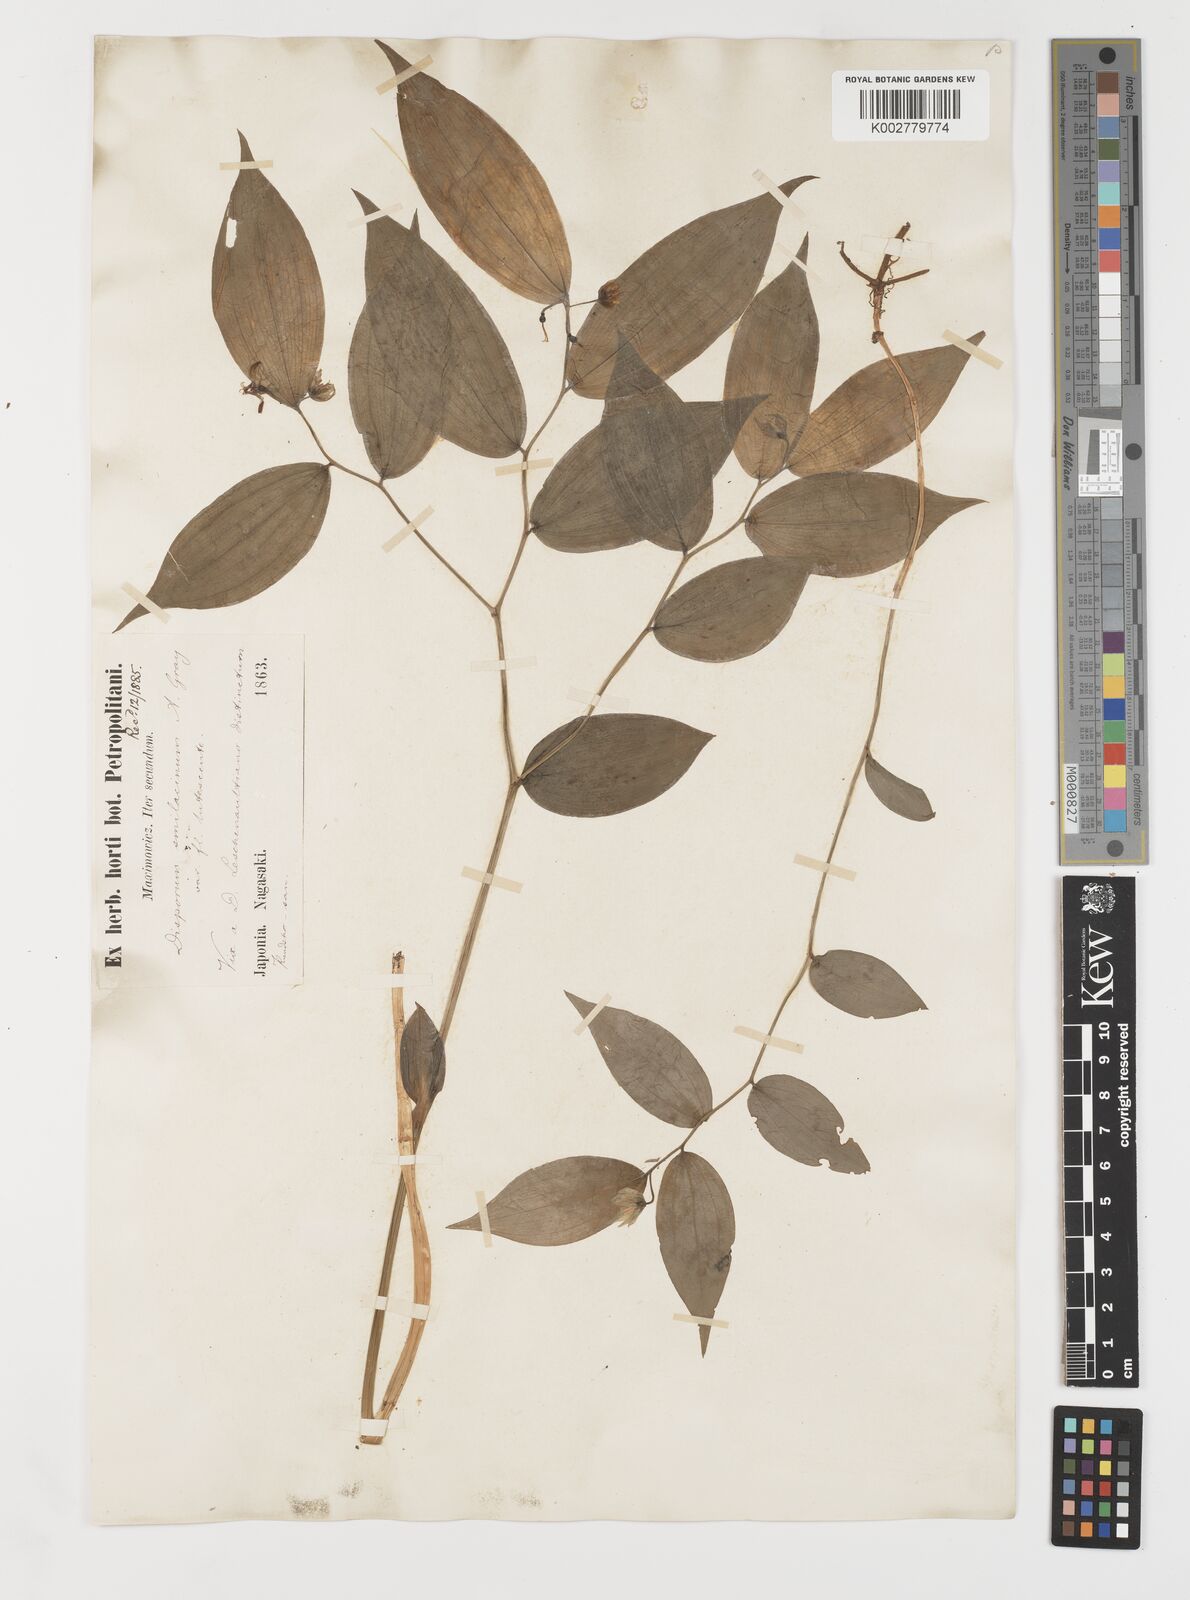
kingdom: Plantae
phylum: Tracheophyta
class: Liliopsida
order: Liliales
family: Colchicaceae
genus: Disporum
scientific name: Disporum smilacinum
